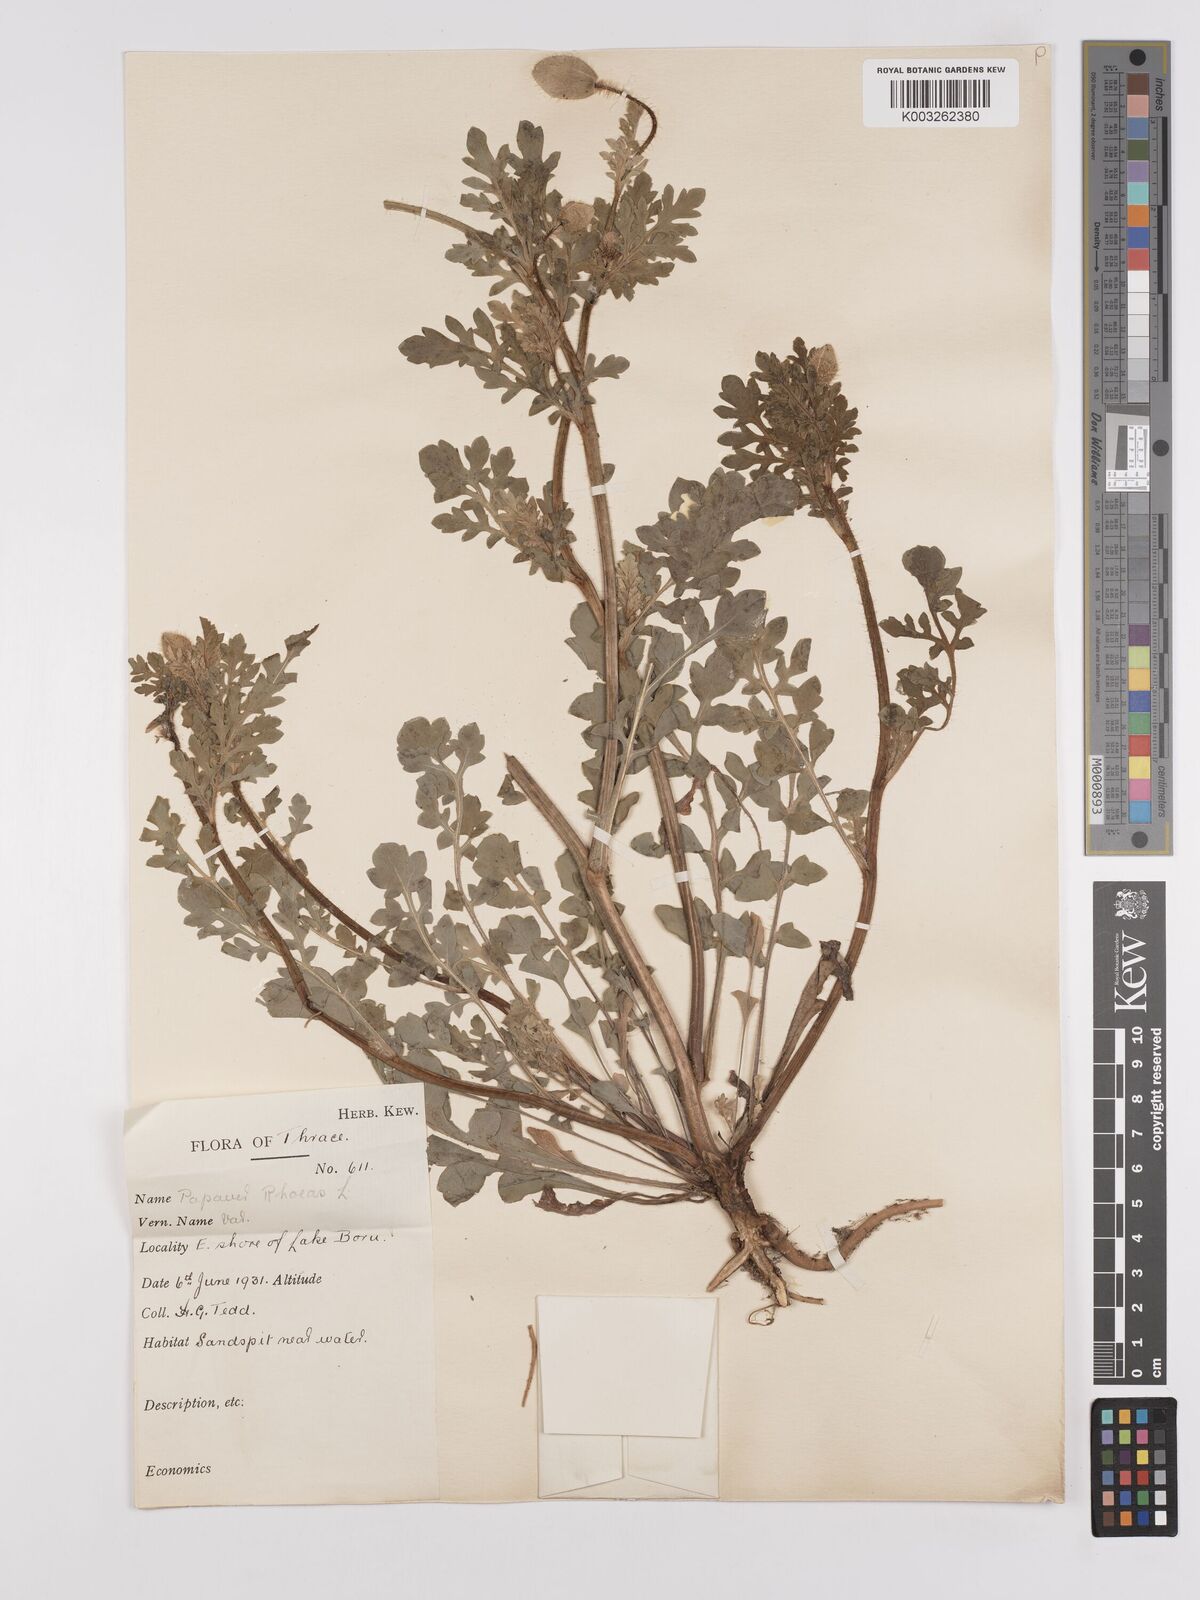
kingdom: Plantae
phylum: Tracheophyta
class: Magnoliopsida
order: Ranunculales
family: Papaveraceae
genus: Papaver
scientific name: Papaver rhoeas
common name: Corn poppy
